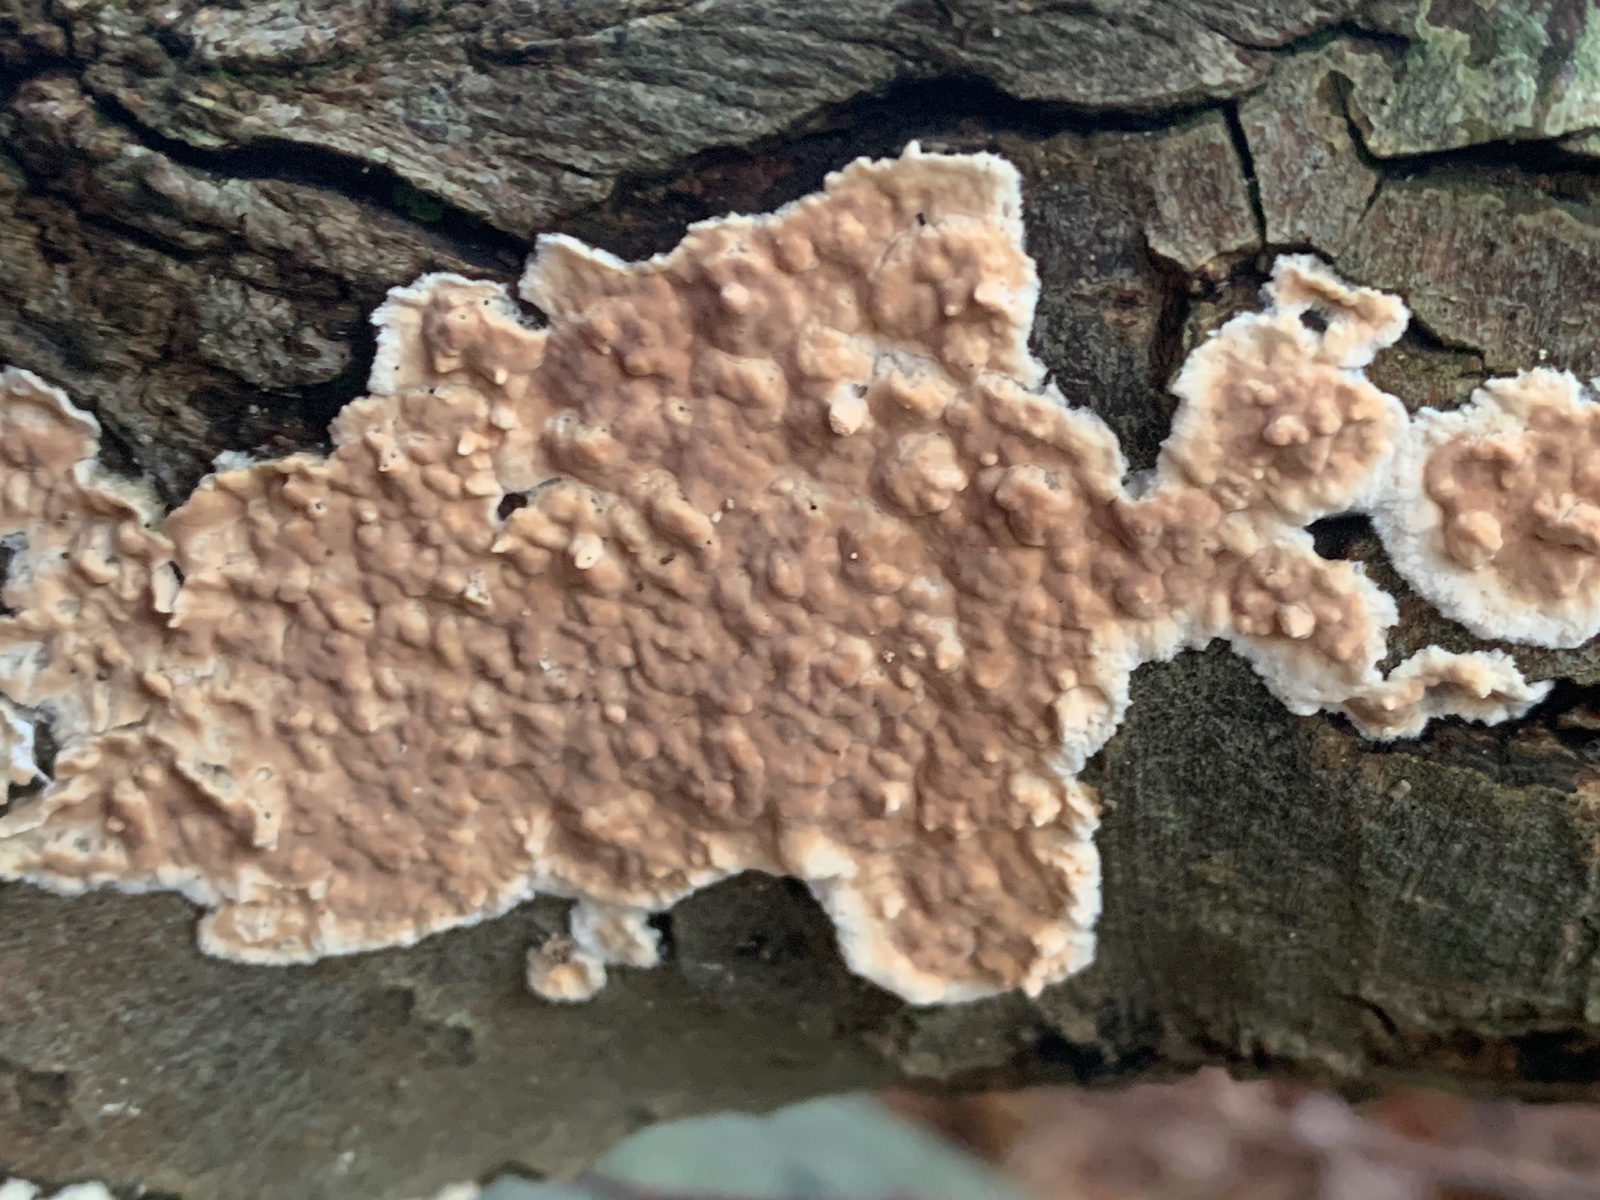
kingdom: Fungi
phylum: Basidiomycota
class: Agaricomycetes
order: Agaricales
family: Physalacriaceae
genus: Cylindrobasidium
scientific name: Cylindrobasidium evolvens
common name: sprækkehinde
